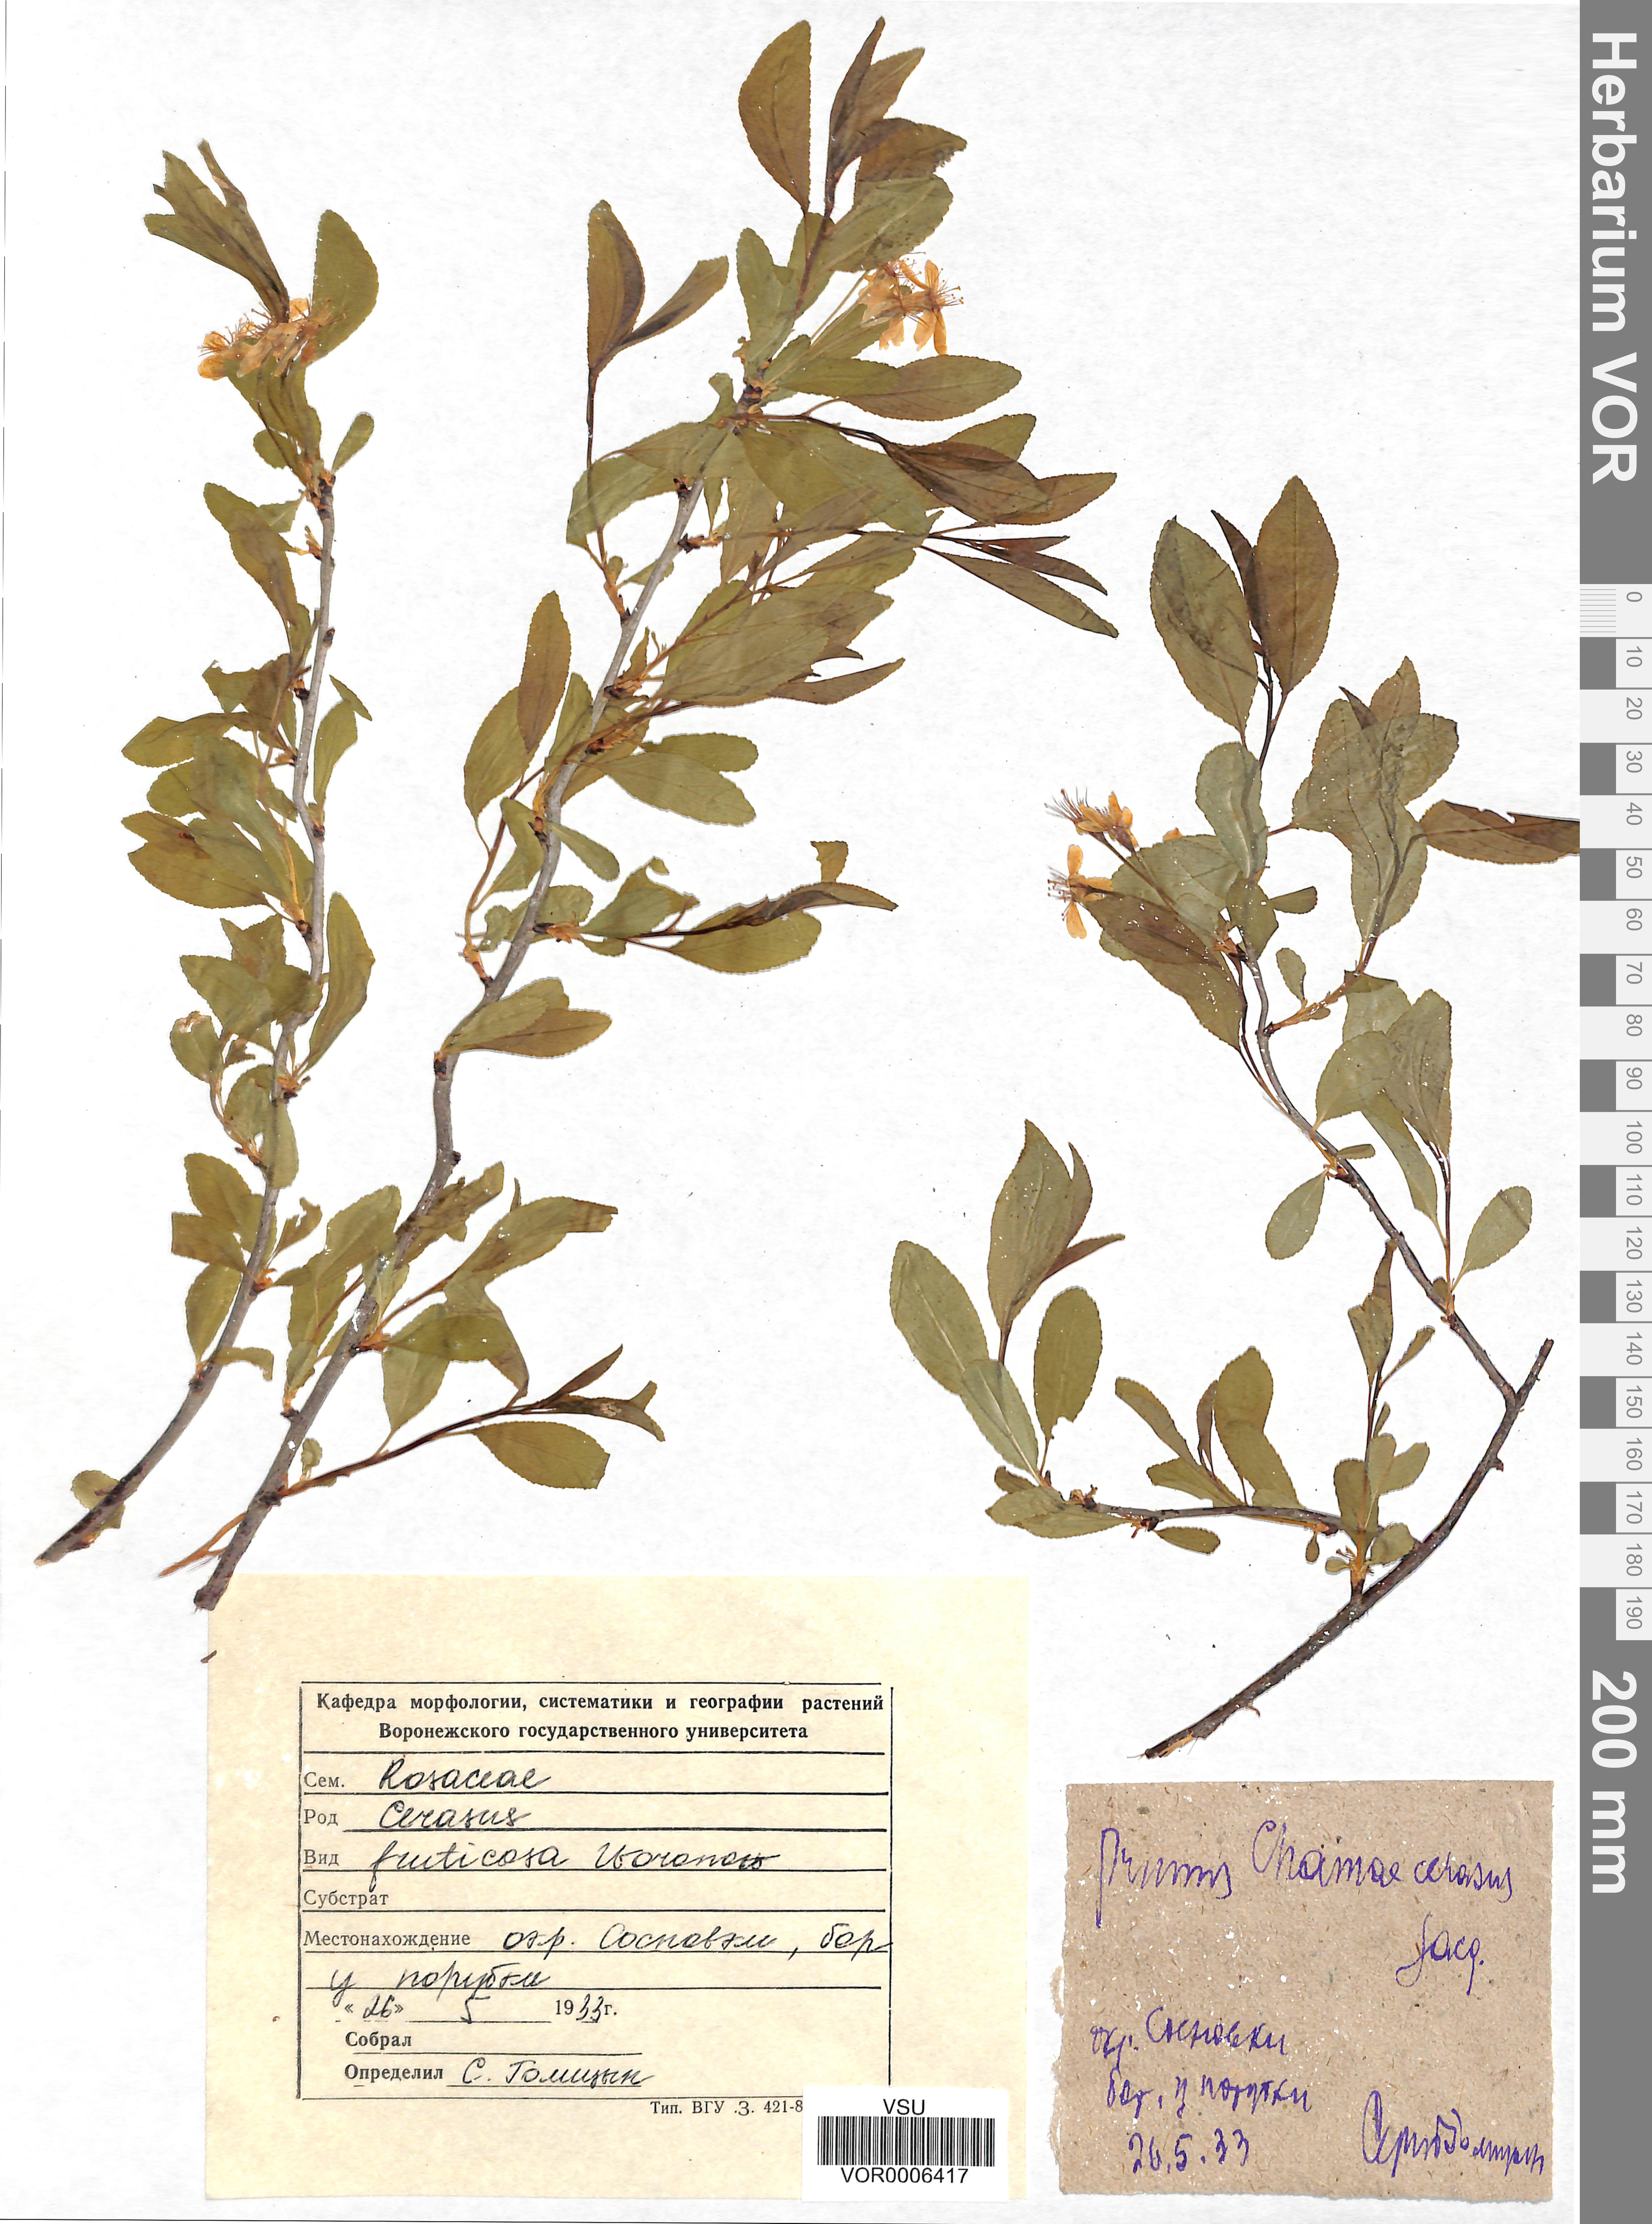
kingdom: Plantae
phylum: Tracheophyta
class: Magnoliopsida
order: Rosales
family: Rosaceae
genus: Prunus
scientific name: Prunus fruticosa
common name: European dwarf cherry
